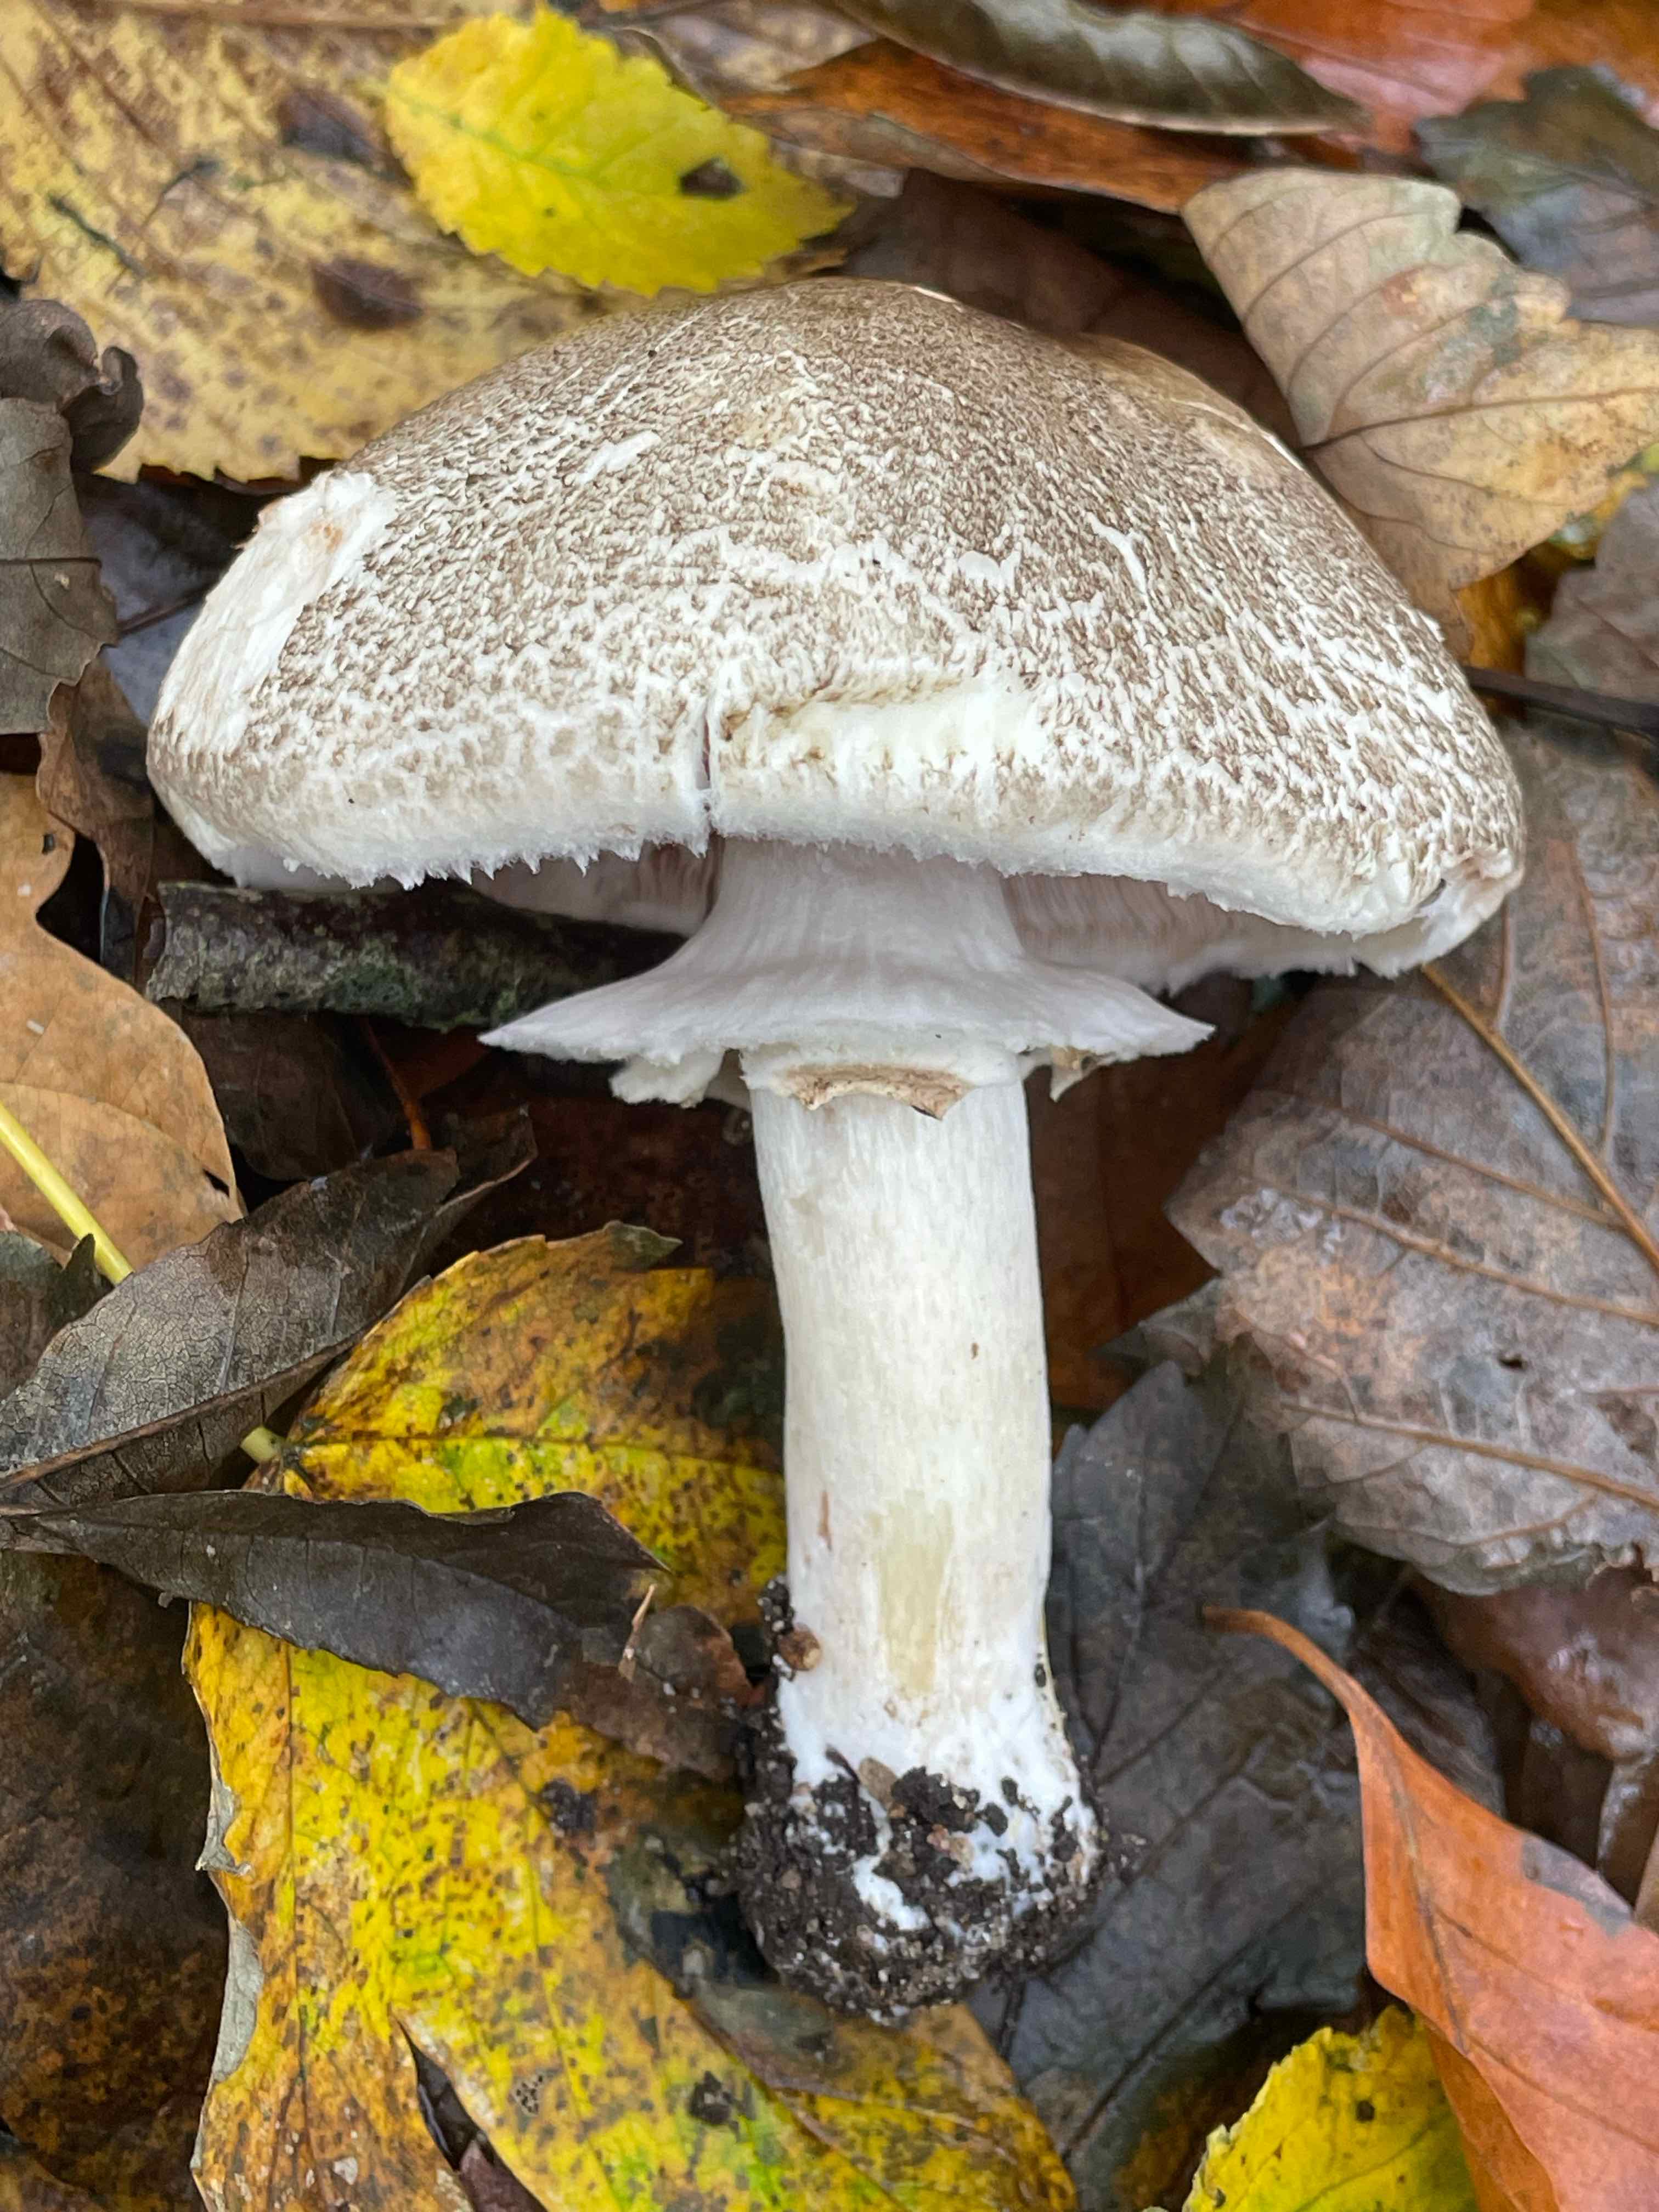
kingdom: Fungi
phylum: Basidiomycota
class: Agaricomycetes
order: Agaricales
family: Agaricaceae
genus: Agaricus
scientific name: Agaricus moelleri
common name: perlehøne-champignon
